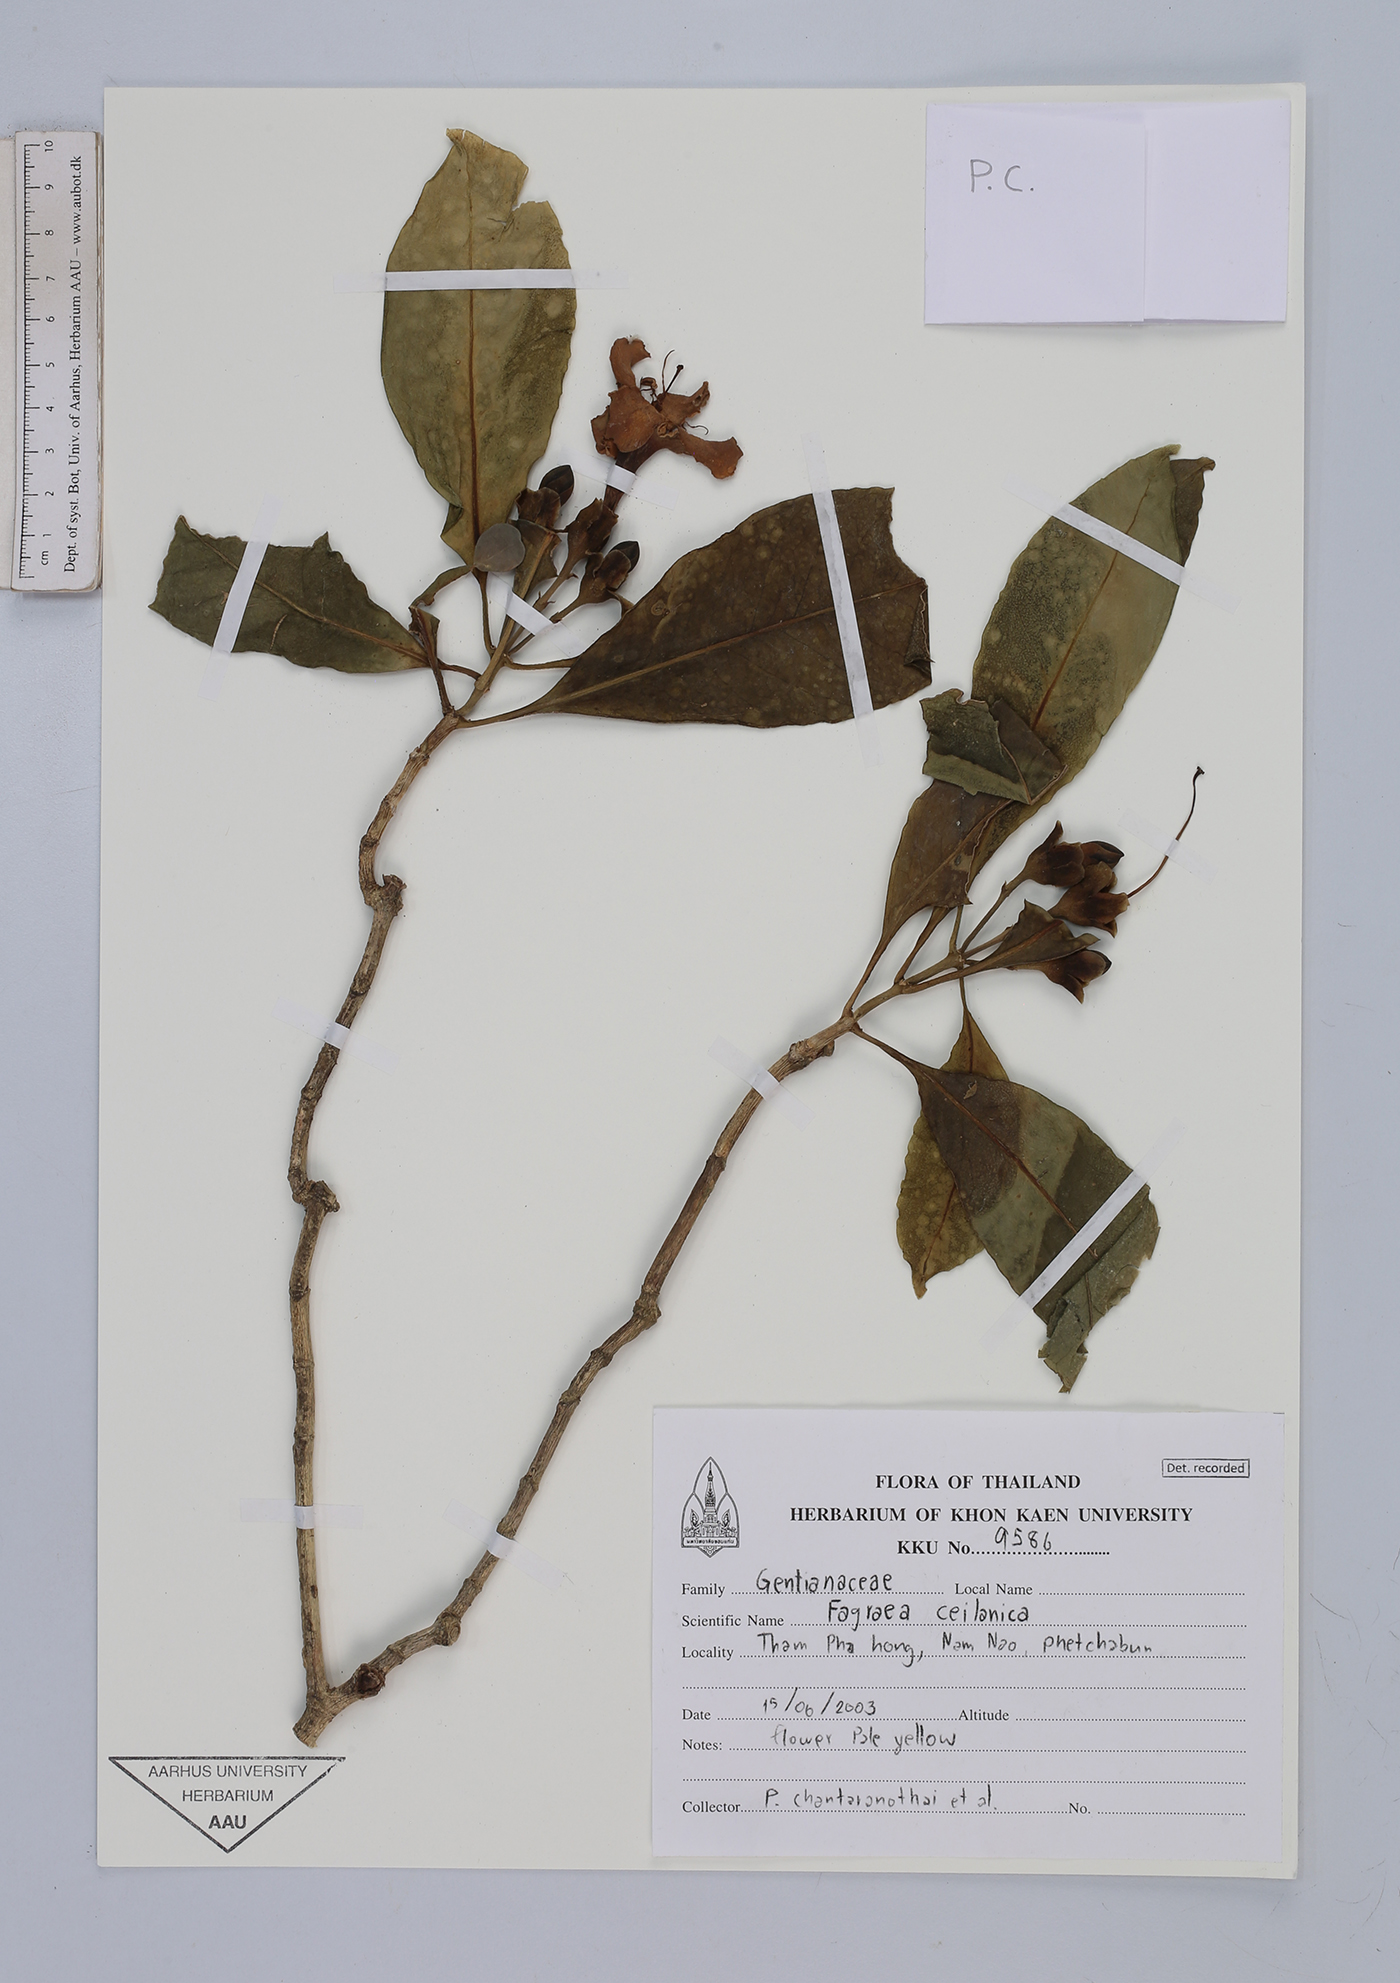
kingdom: Plantae
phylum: Tracheophyta
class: Magnoliopsida
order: Gentianales
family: Gentianaceae
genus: Fagraea
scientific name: Fagraea ceilanica
